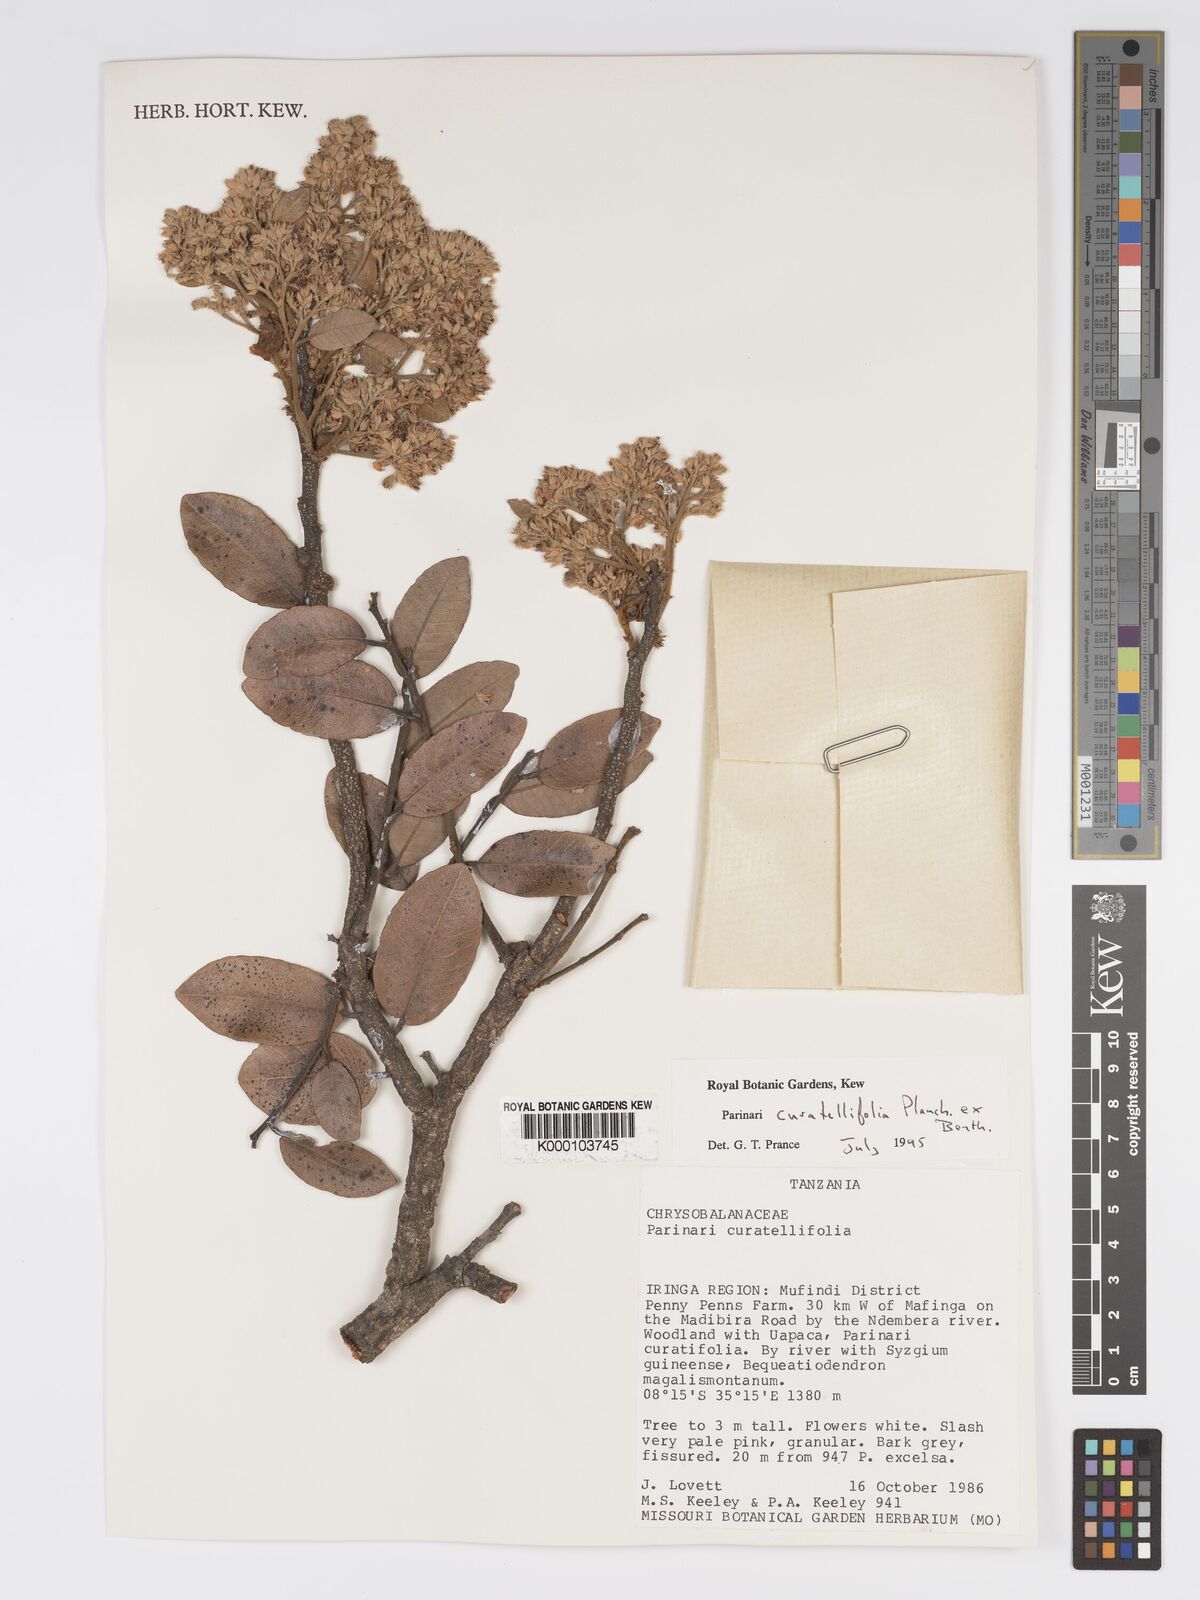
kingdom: Plantae
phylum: Tracheophyta
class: Magnoliopsida
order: Malpighiales
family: Chrysobalanaceae
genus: Parinari
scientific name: Parinari curatellifolia
